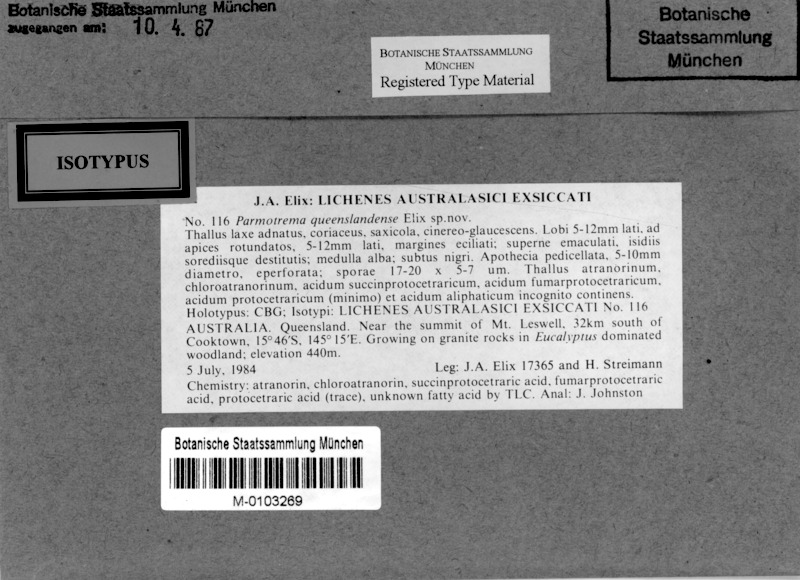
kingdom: Fungi
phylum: Ascomycota
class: Lecanoromycetes
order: Lecanorales
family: Parmeliaceae
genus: Parmotrema
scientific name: Parmotrema queenslandense
